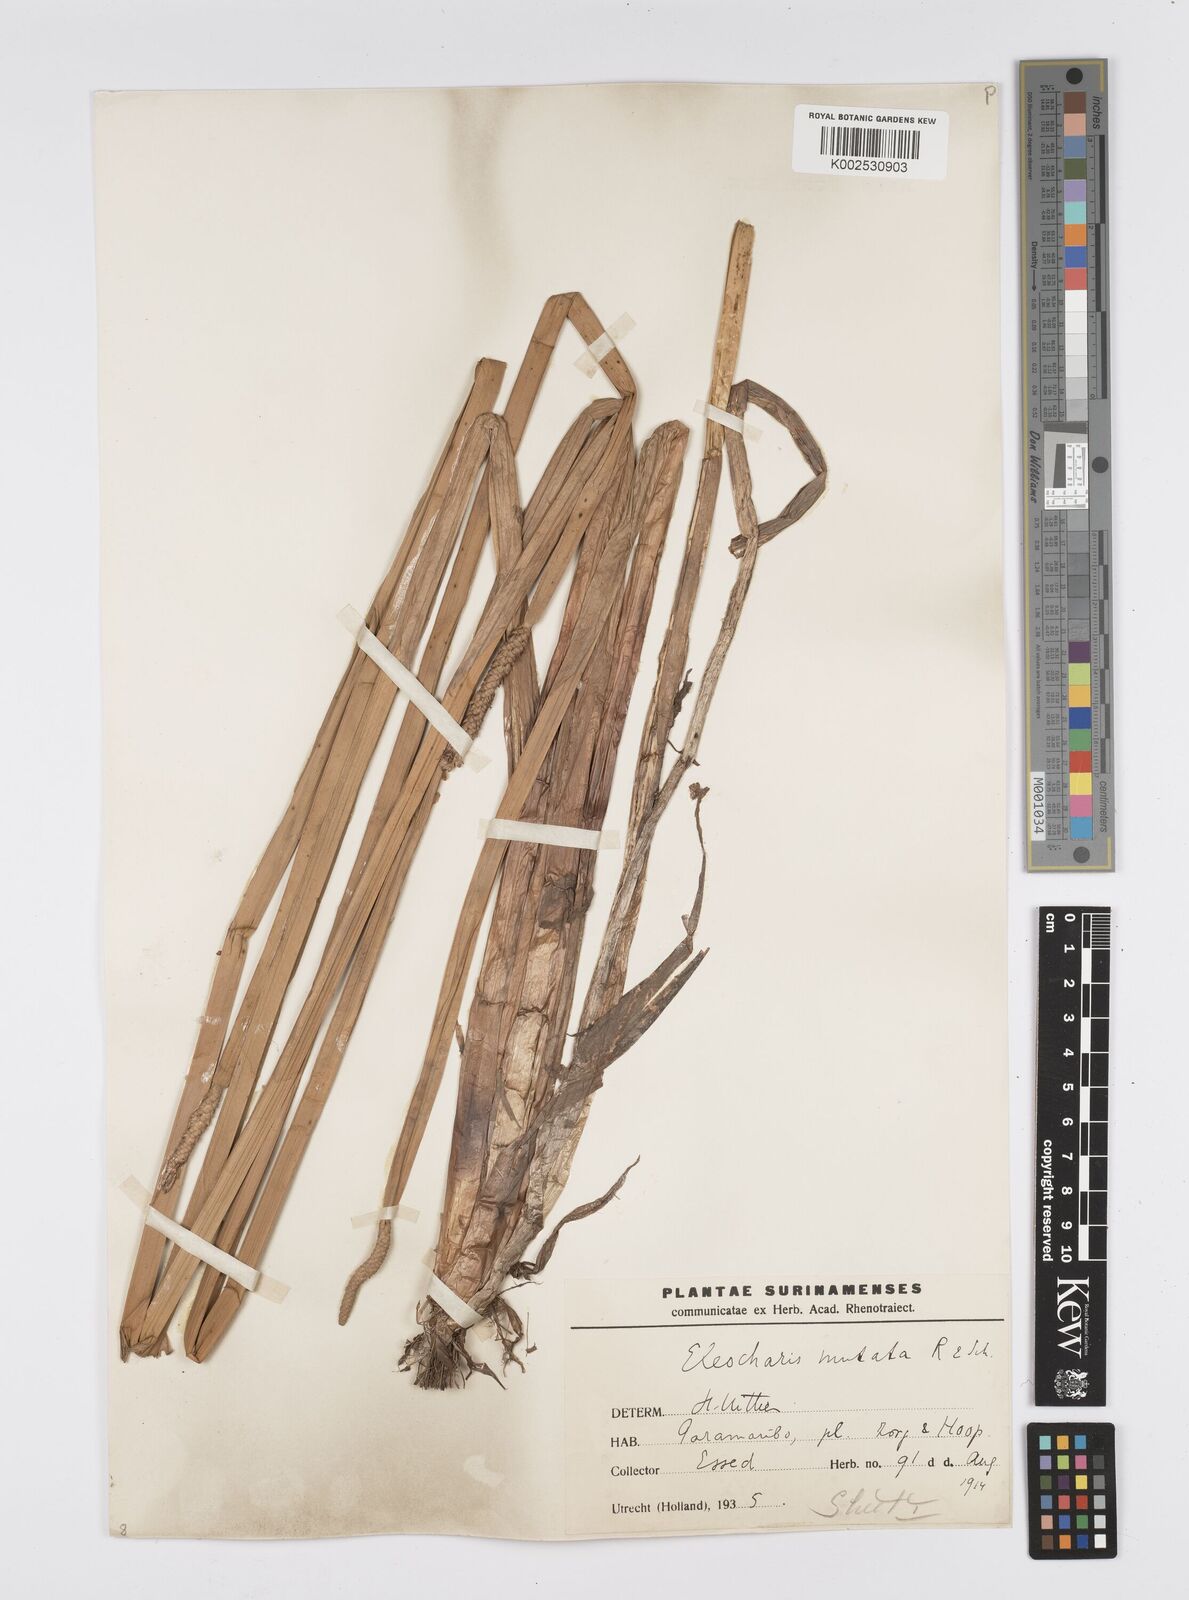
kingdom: Plantae
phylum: Tracheophyta
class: Liliopsida
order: Poales
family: Cyperaceae
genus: Eleocharis
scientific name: Eleocharis mutata
